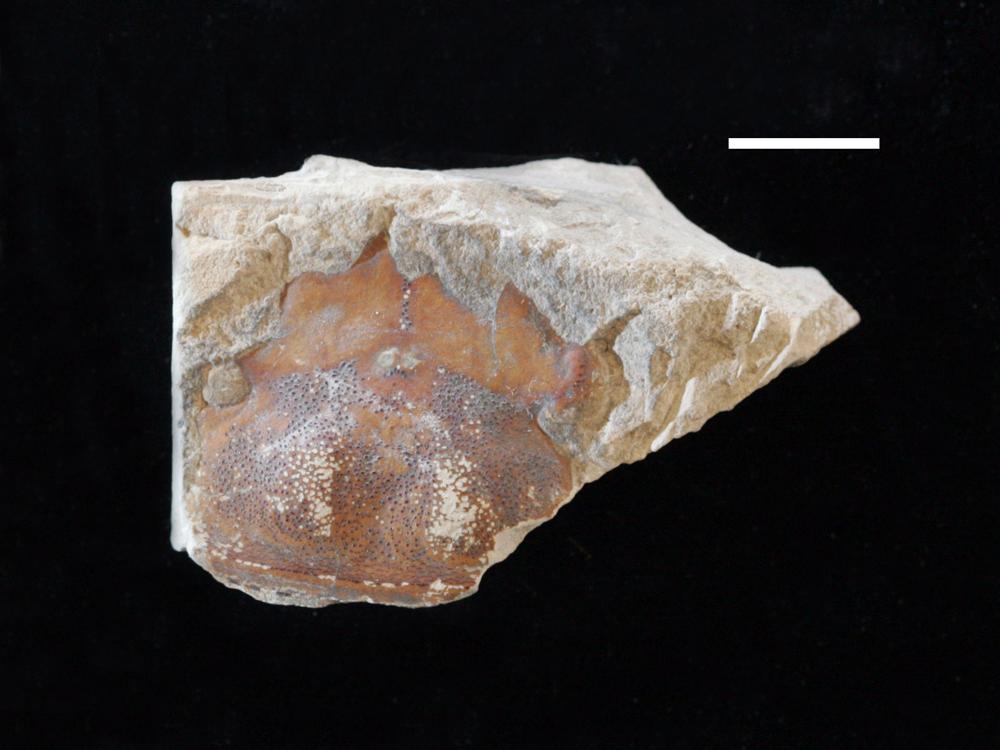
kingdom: Animalia
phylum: Arthropoda
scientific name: Arthropoda
